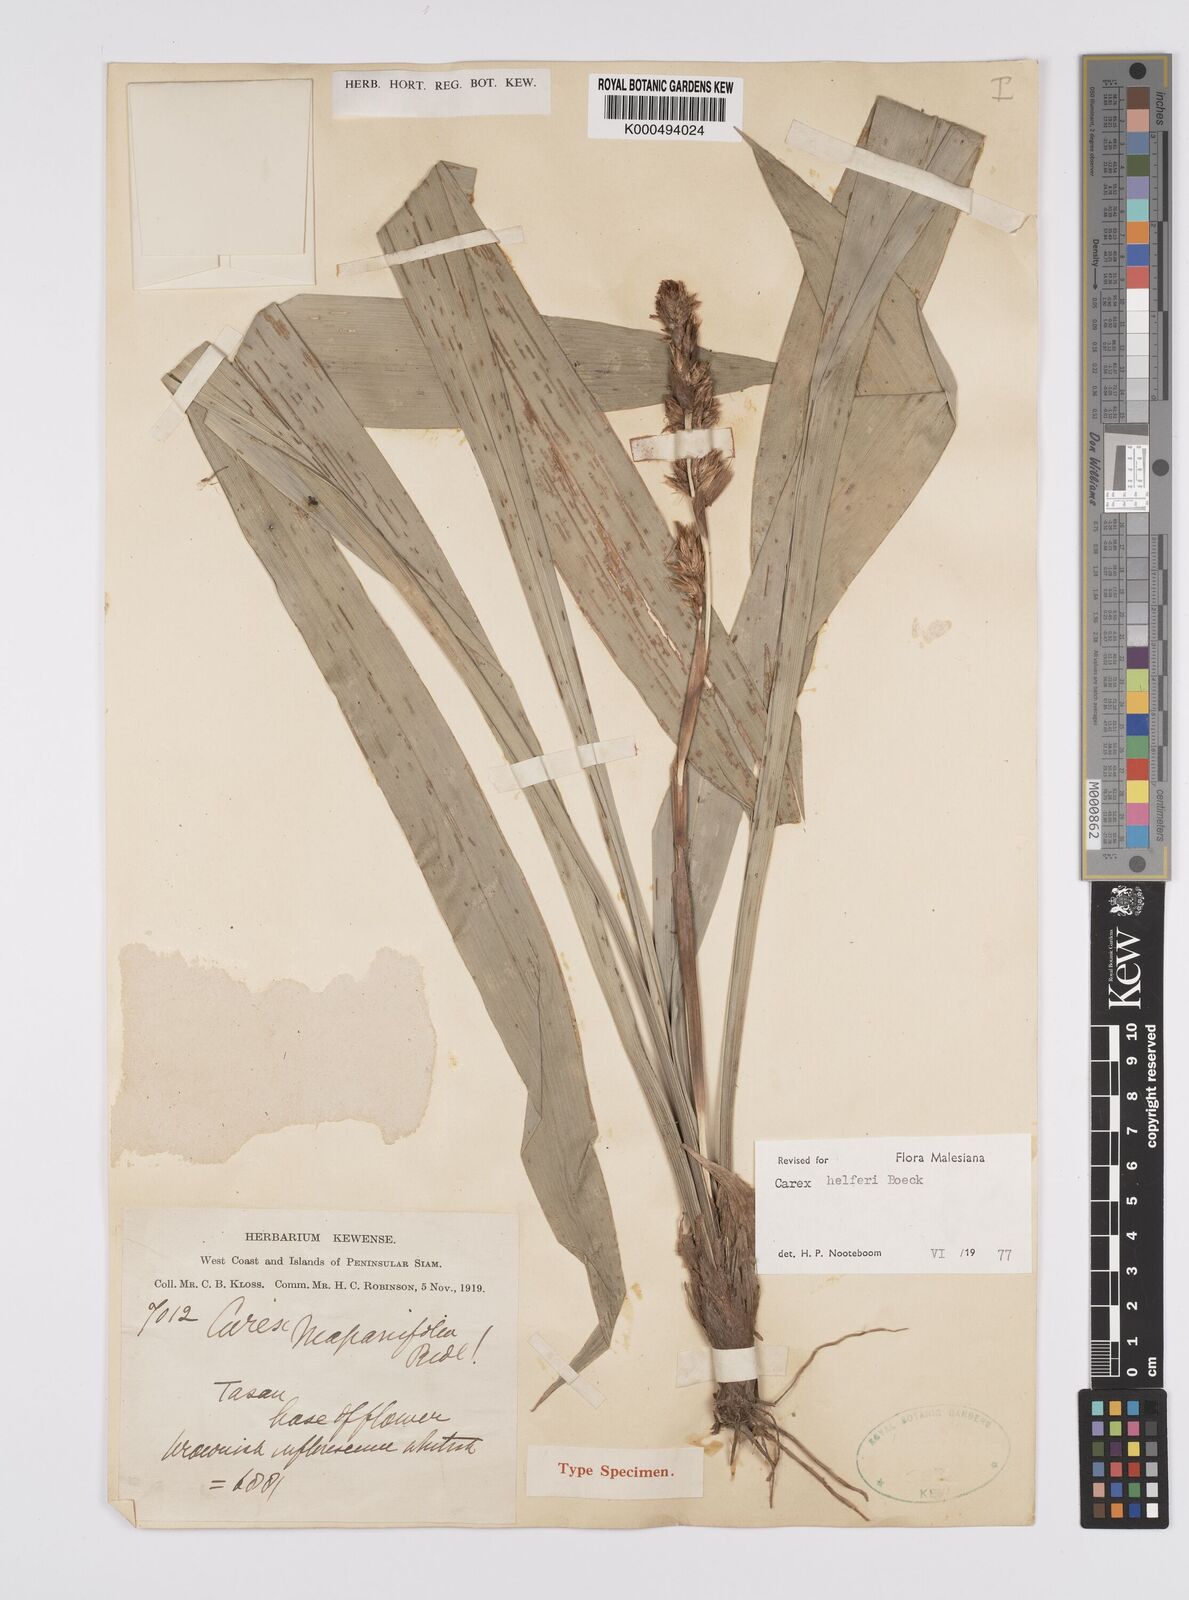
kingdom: Plantae
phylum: Tracheophyta
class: Liliopsida
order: Poales
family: Cyperaceae
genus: Carex
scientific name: Carex helferi
